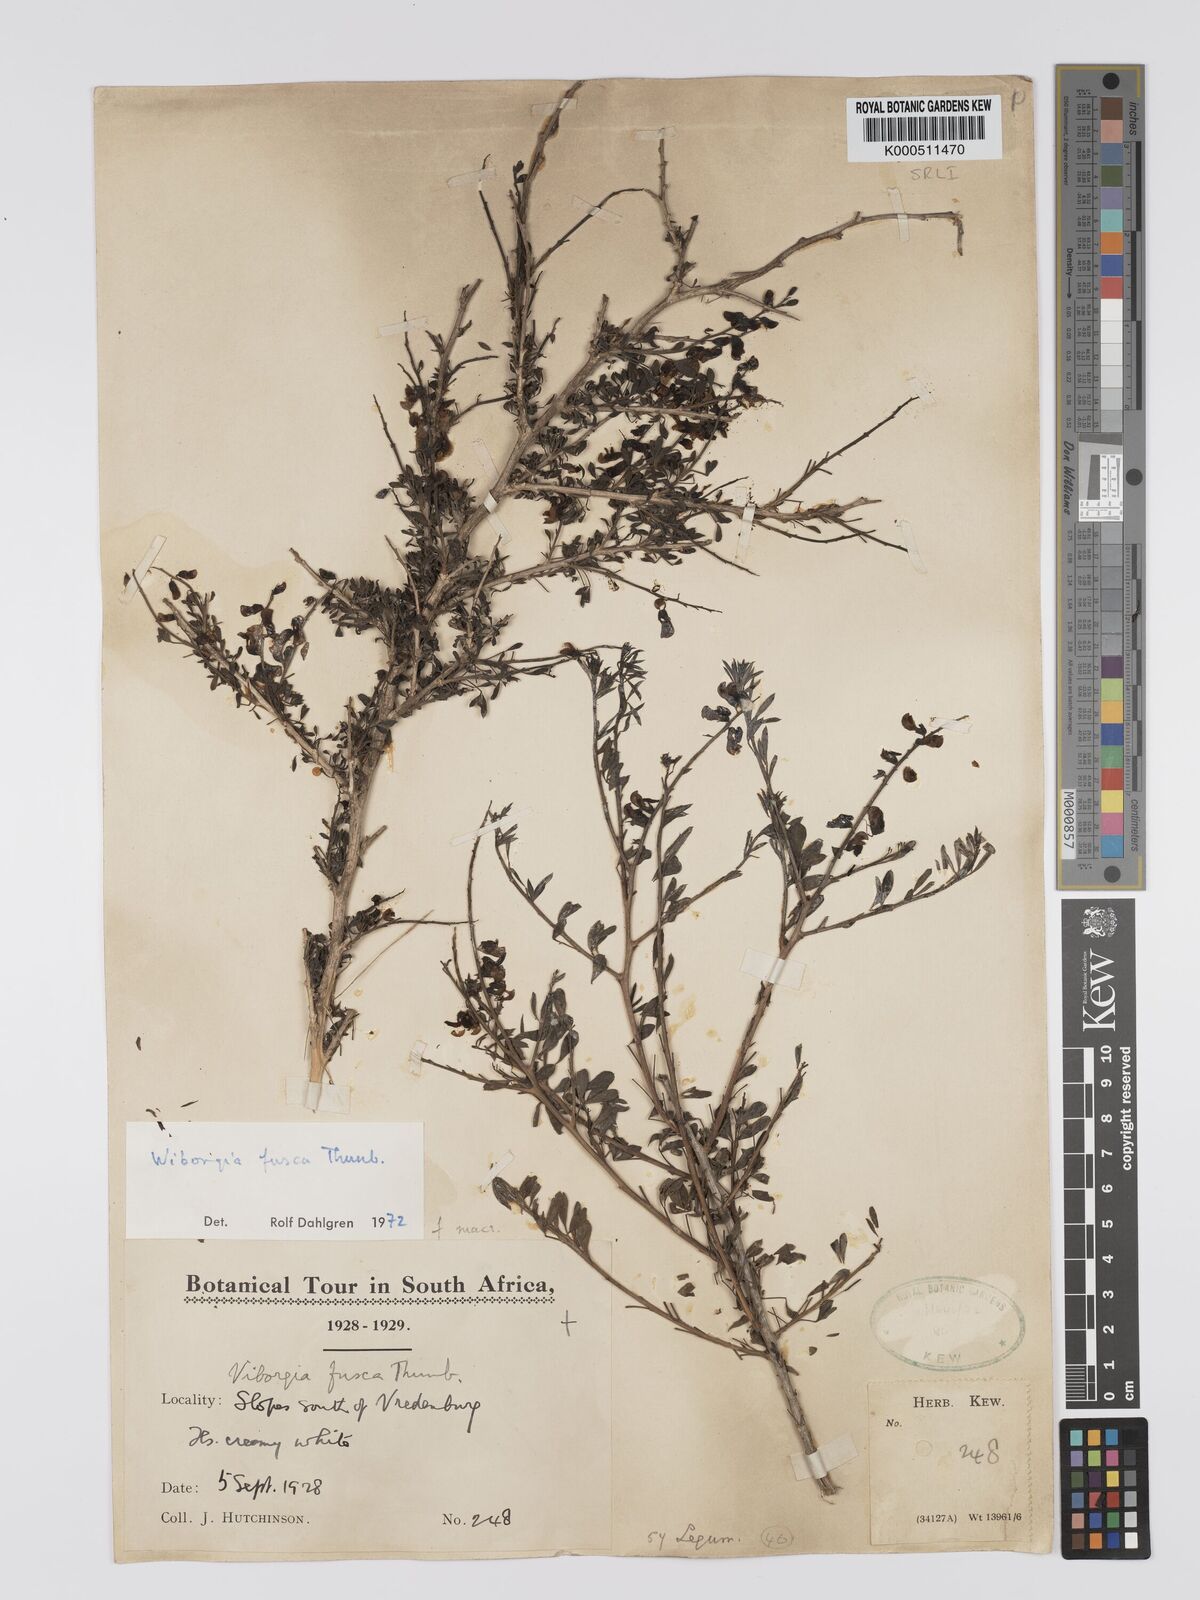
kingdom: Plantae
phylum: Tracheophyta
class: Magnoliopsida
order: Fabales
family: Fabaceae
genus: Wiborgia
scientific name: Wiborgia fusca
